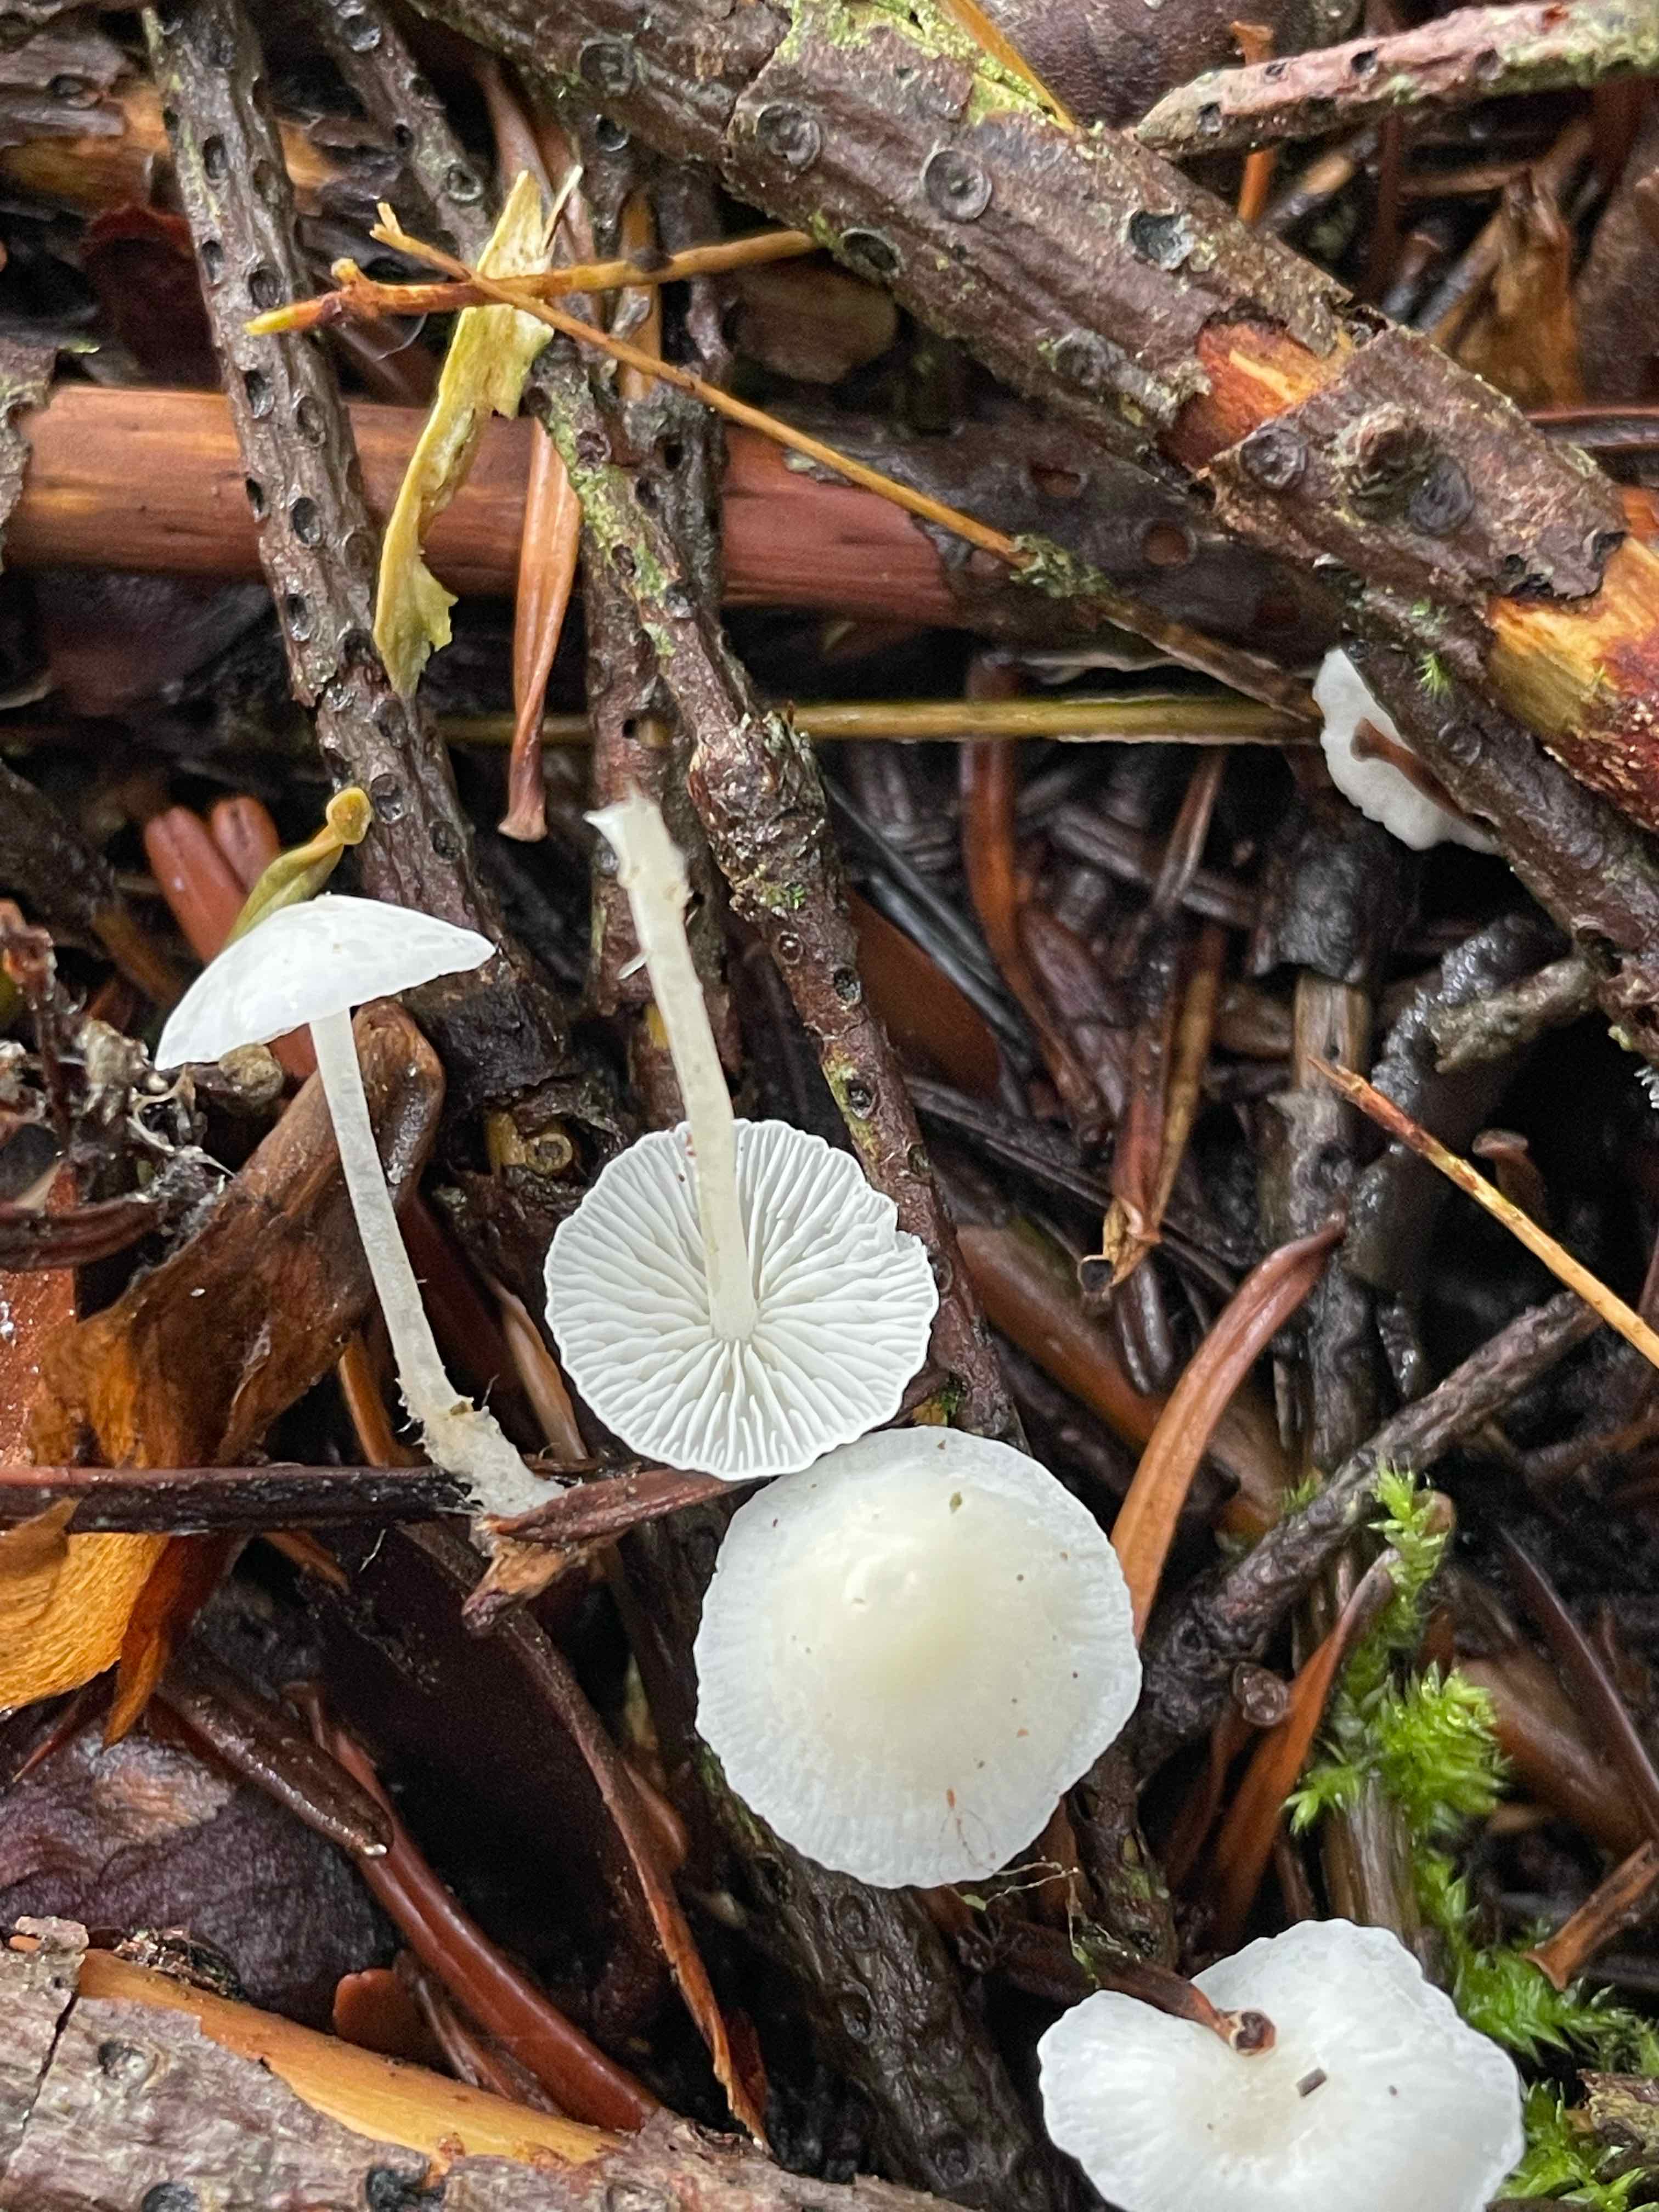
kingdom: Fungi
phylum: Basidiomycota
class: Agaricomycetes
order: Agaricales
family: Mycenaceae
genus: Hemimycena
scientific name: Hemimycena
